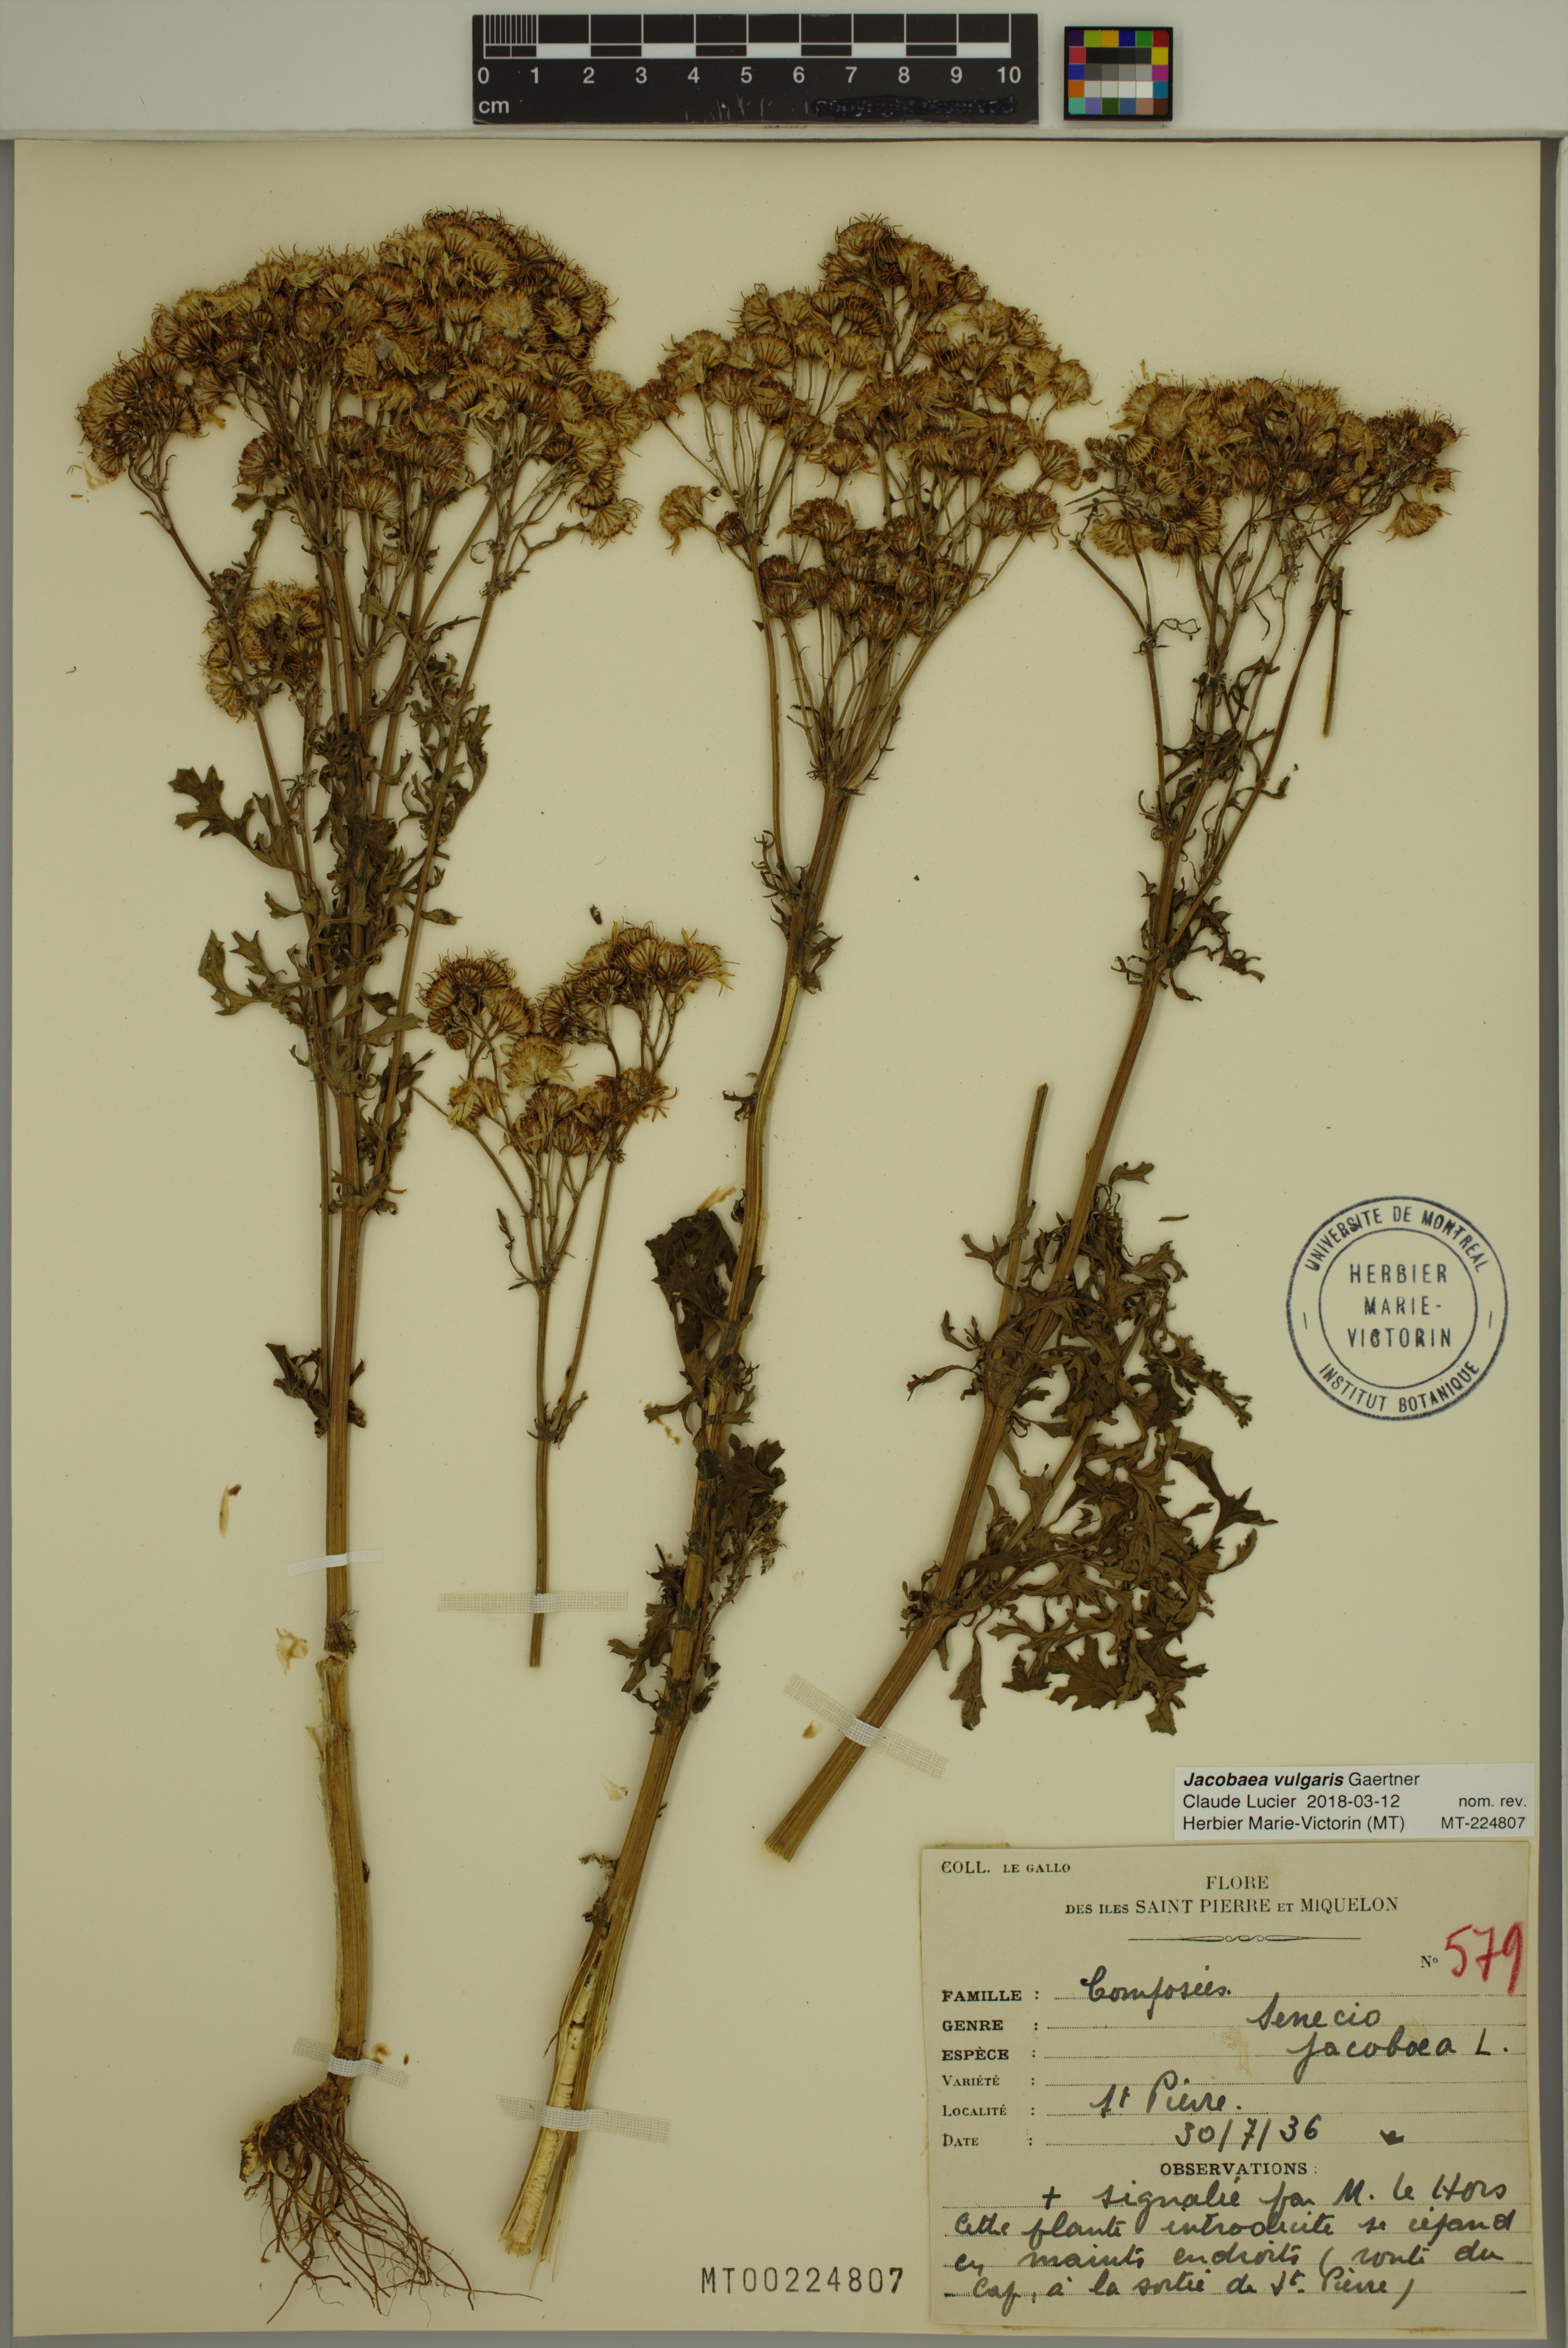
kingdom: Plantae
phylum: Tracheophyta
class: Magnoliopsida
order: Asterales
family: Asteraceae
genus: Jacobaea
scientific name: Jacobaea vulgaris
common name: Stinking willie
